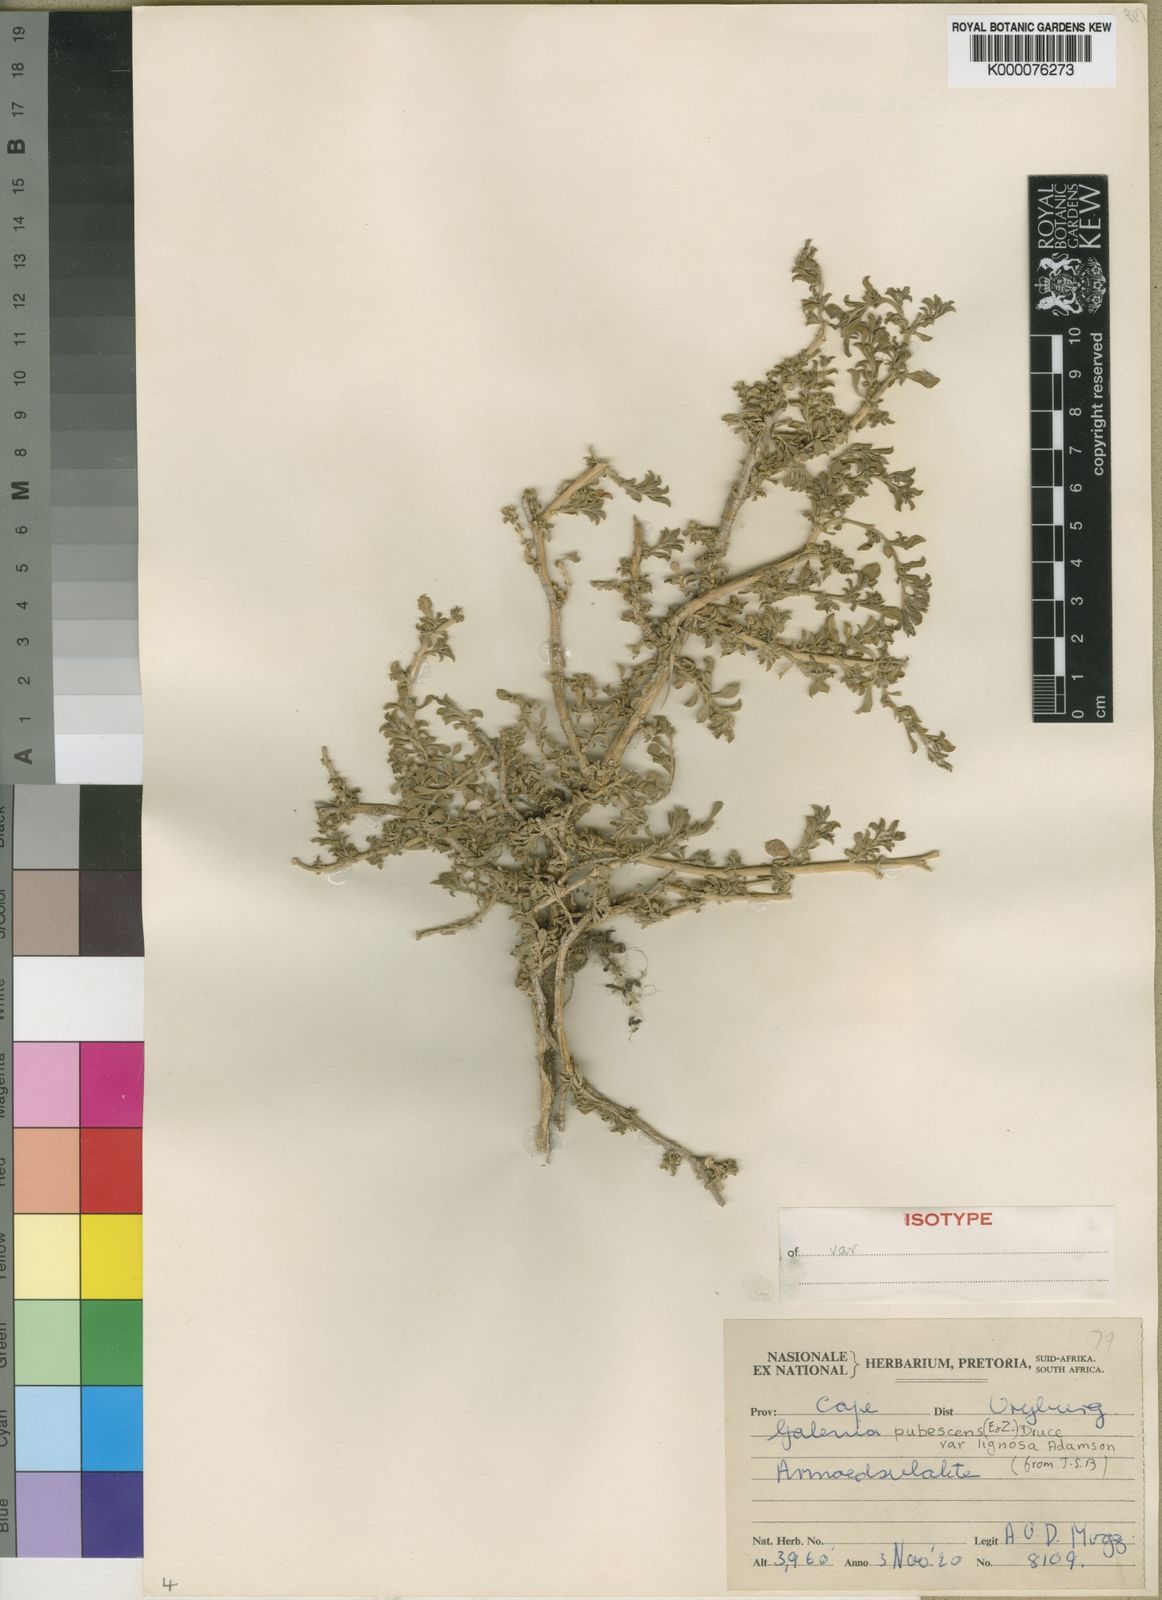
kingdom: Plantae
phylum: Tracheophyta
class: Magnoliopsida
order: Caryophyllales
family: Aizoaceae
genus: Aizoon
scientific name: Aizoon pubescens
